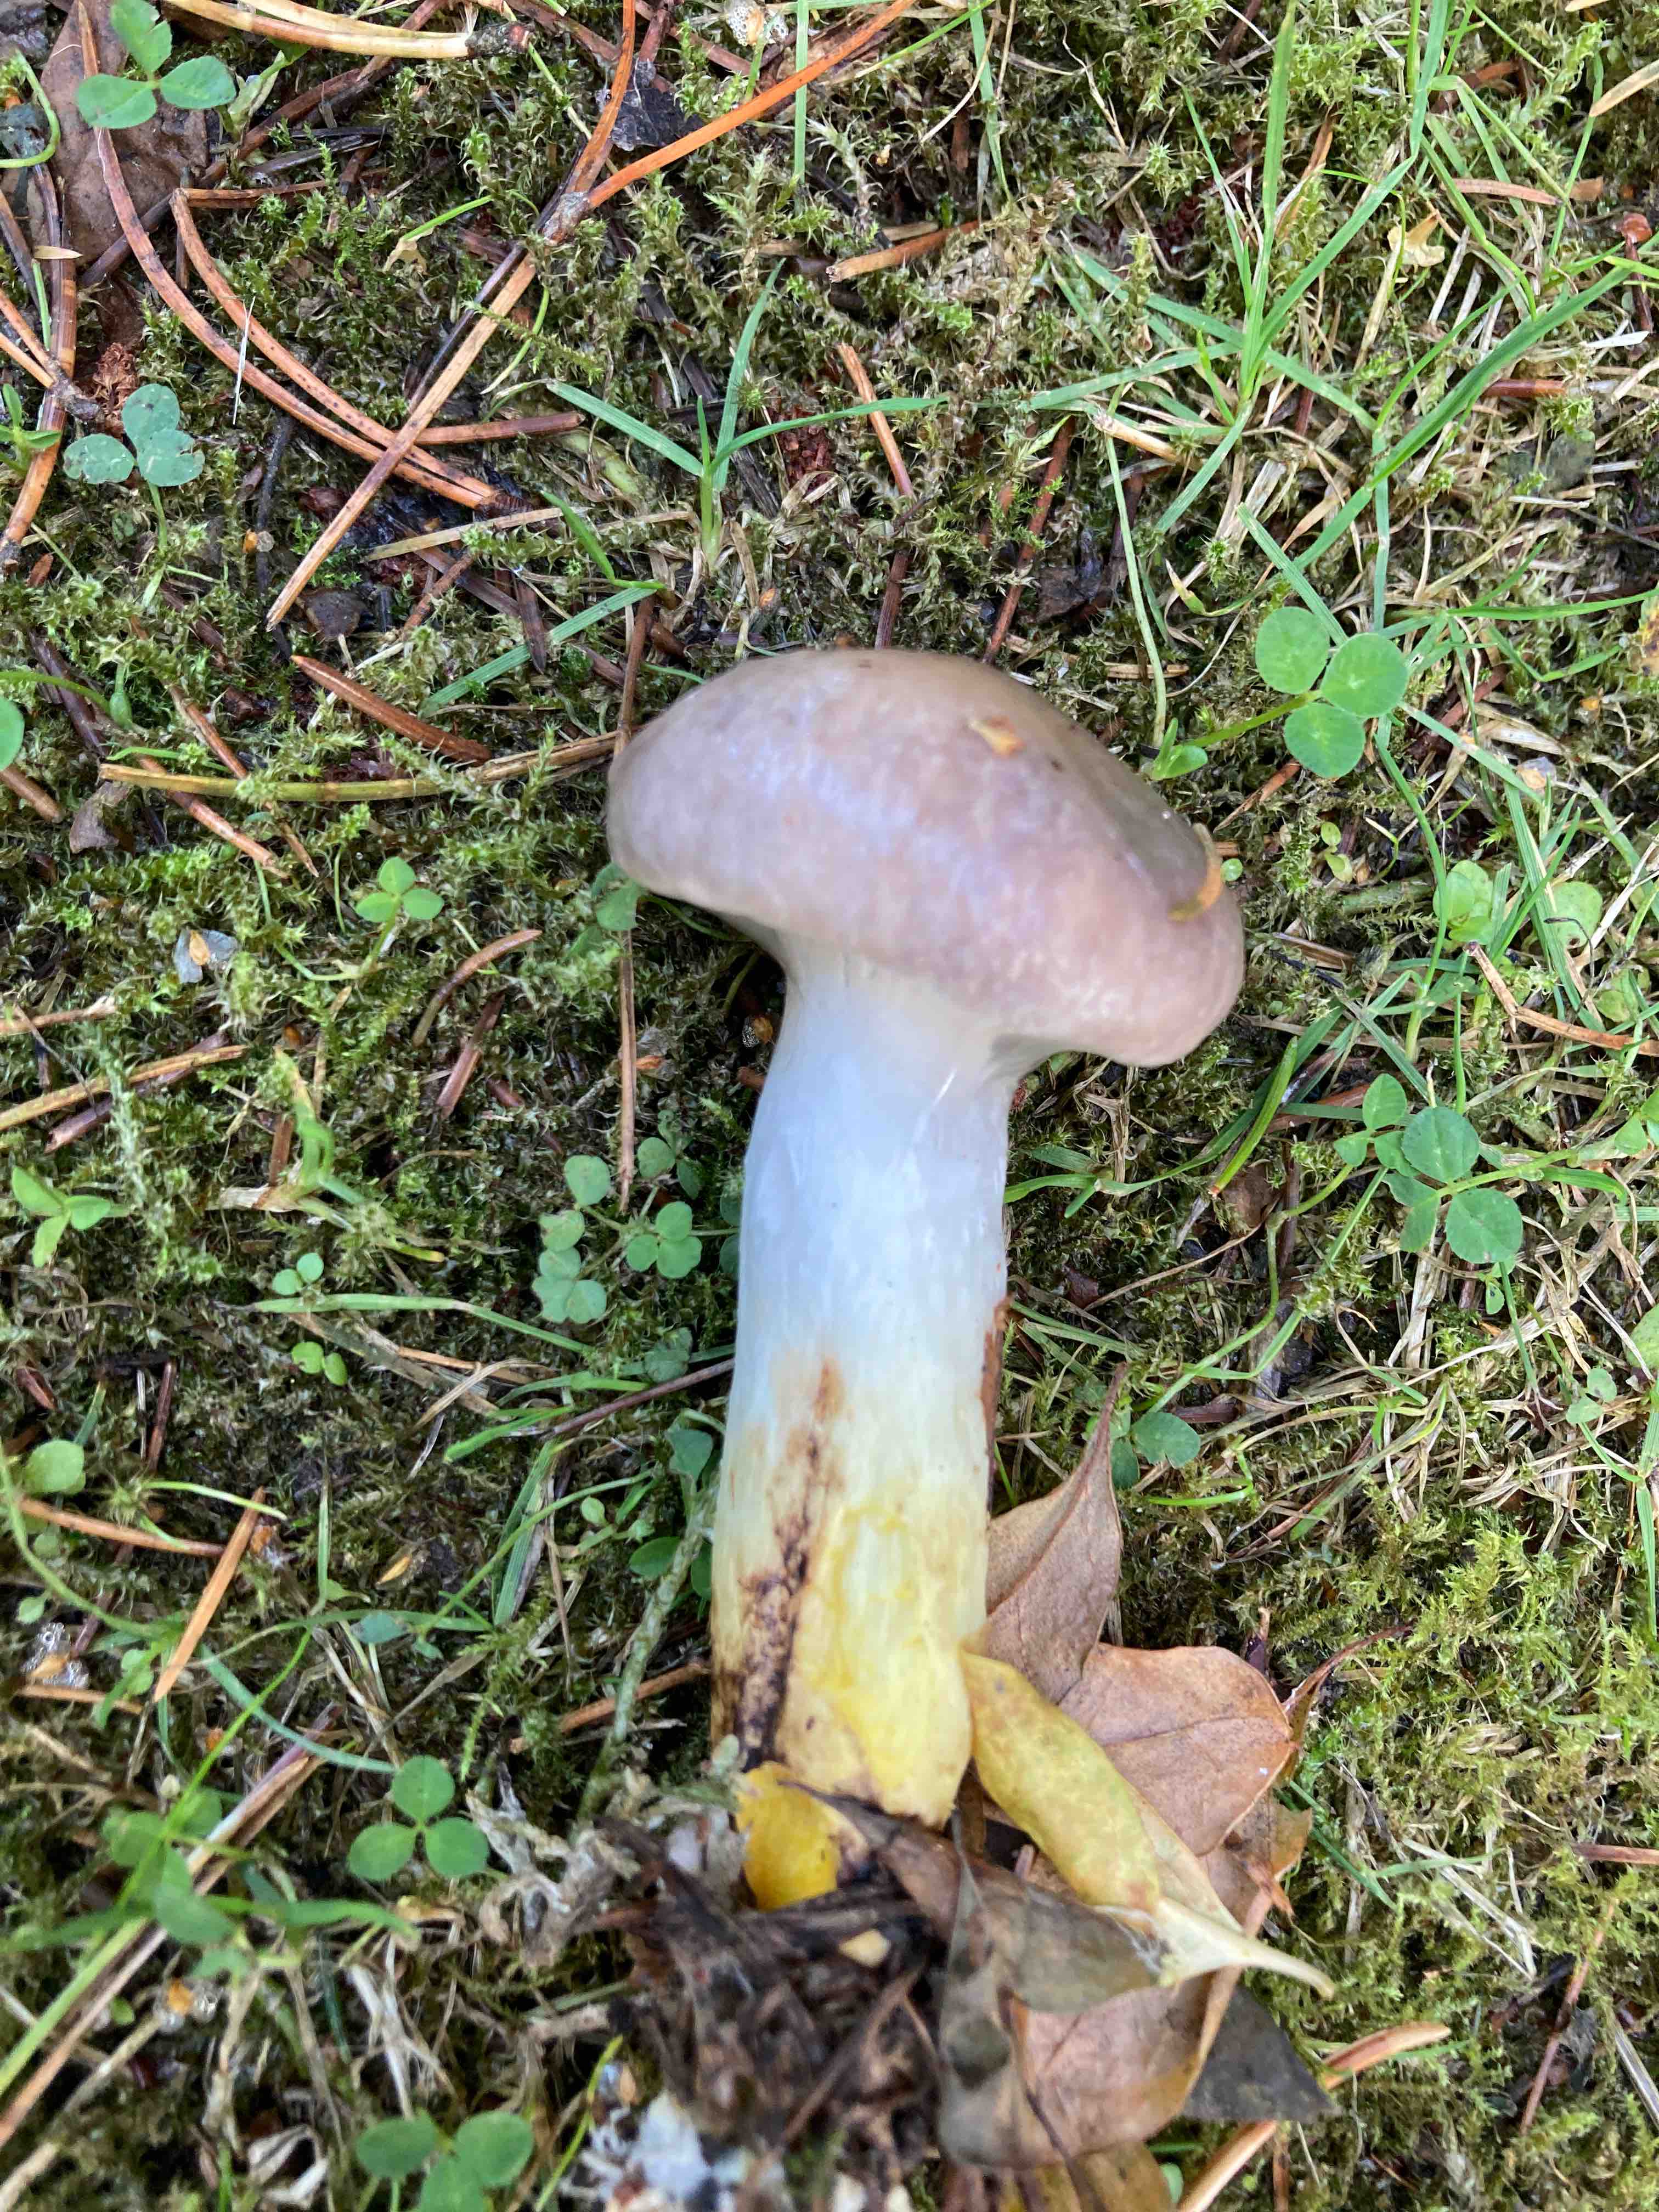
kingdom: Fungi
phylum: Basidiomycota
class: Agaricomycetes
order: Boletales
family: Gomphidiaceae
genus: Gomphidius
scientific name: Gomphidius glutinosus
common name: grå slimslør
